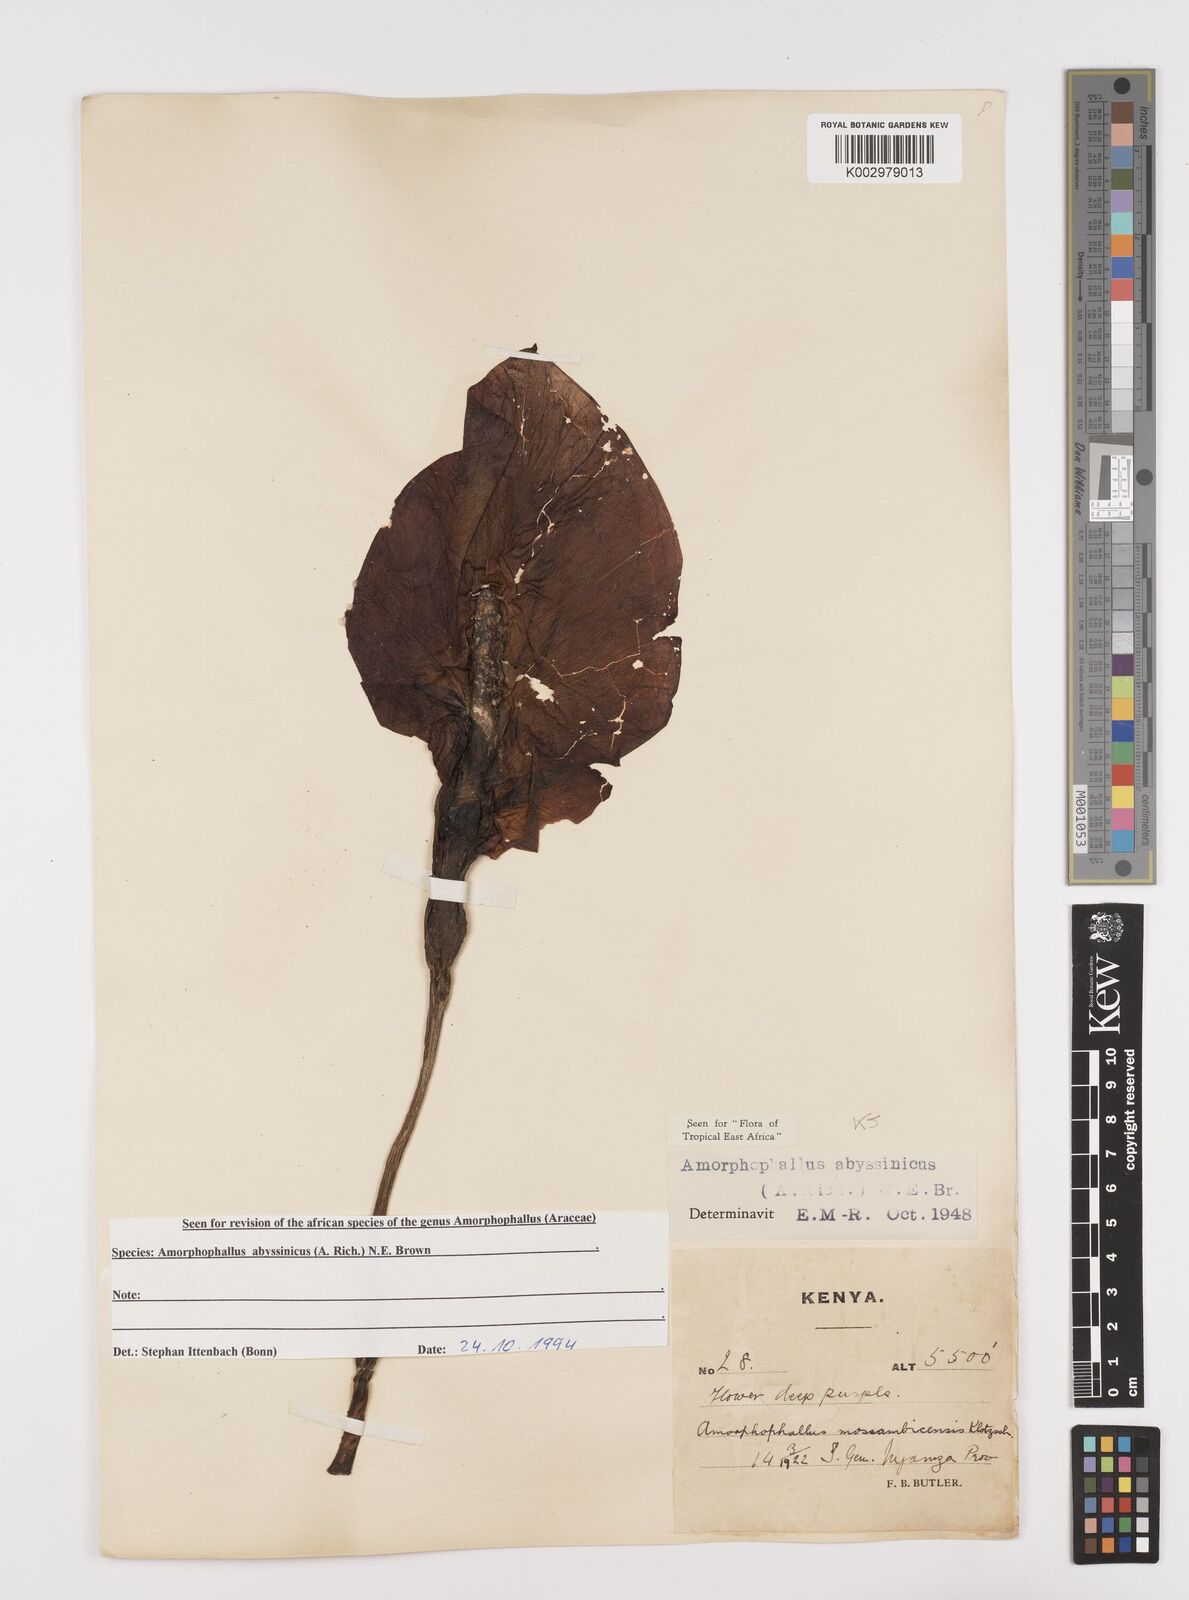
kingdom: Plantae
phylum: Tracheophyta
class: Liliopsida
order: Alismatales
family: Araceae
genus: Amorphophallus
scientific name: Amorphophallus abyssinicus
